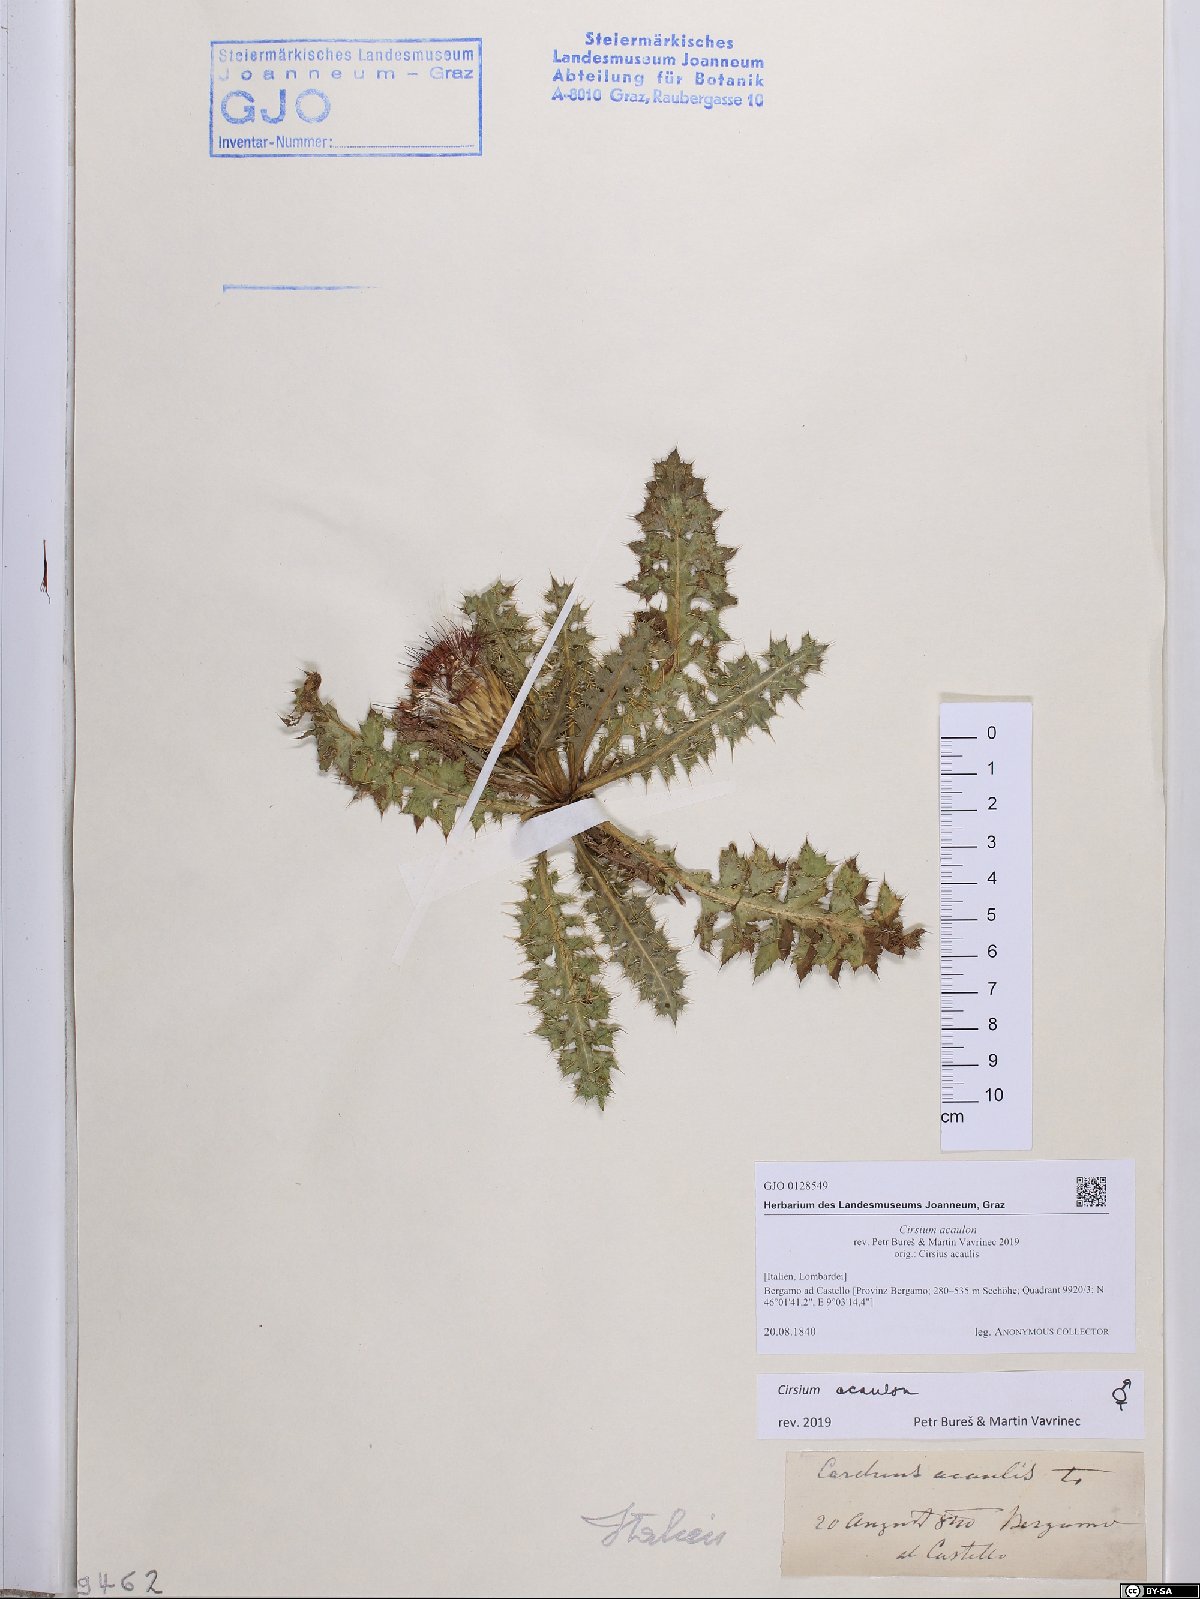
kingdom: Plantae
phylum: Tracheophyta
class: Magnoliopsida
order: Asterales
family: Asteraceae
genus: Cirsium
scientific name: Cirsium acaulon
